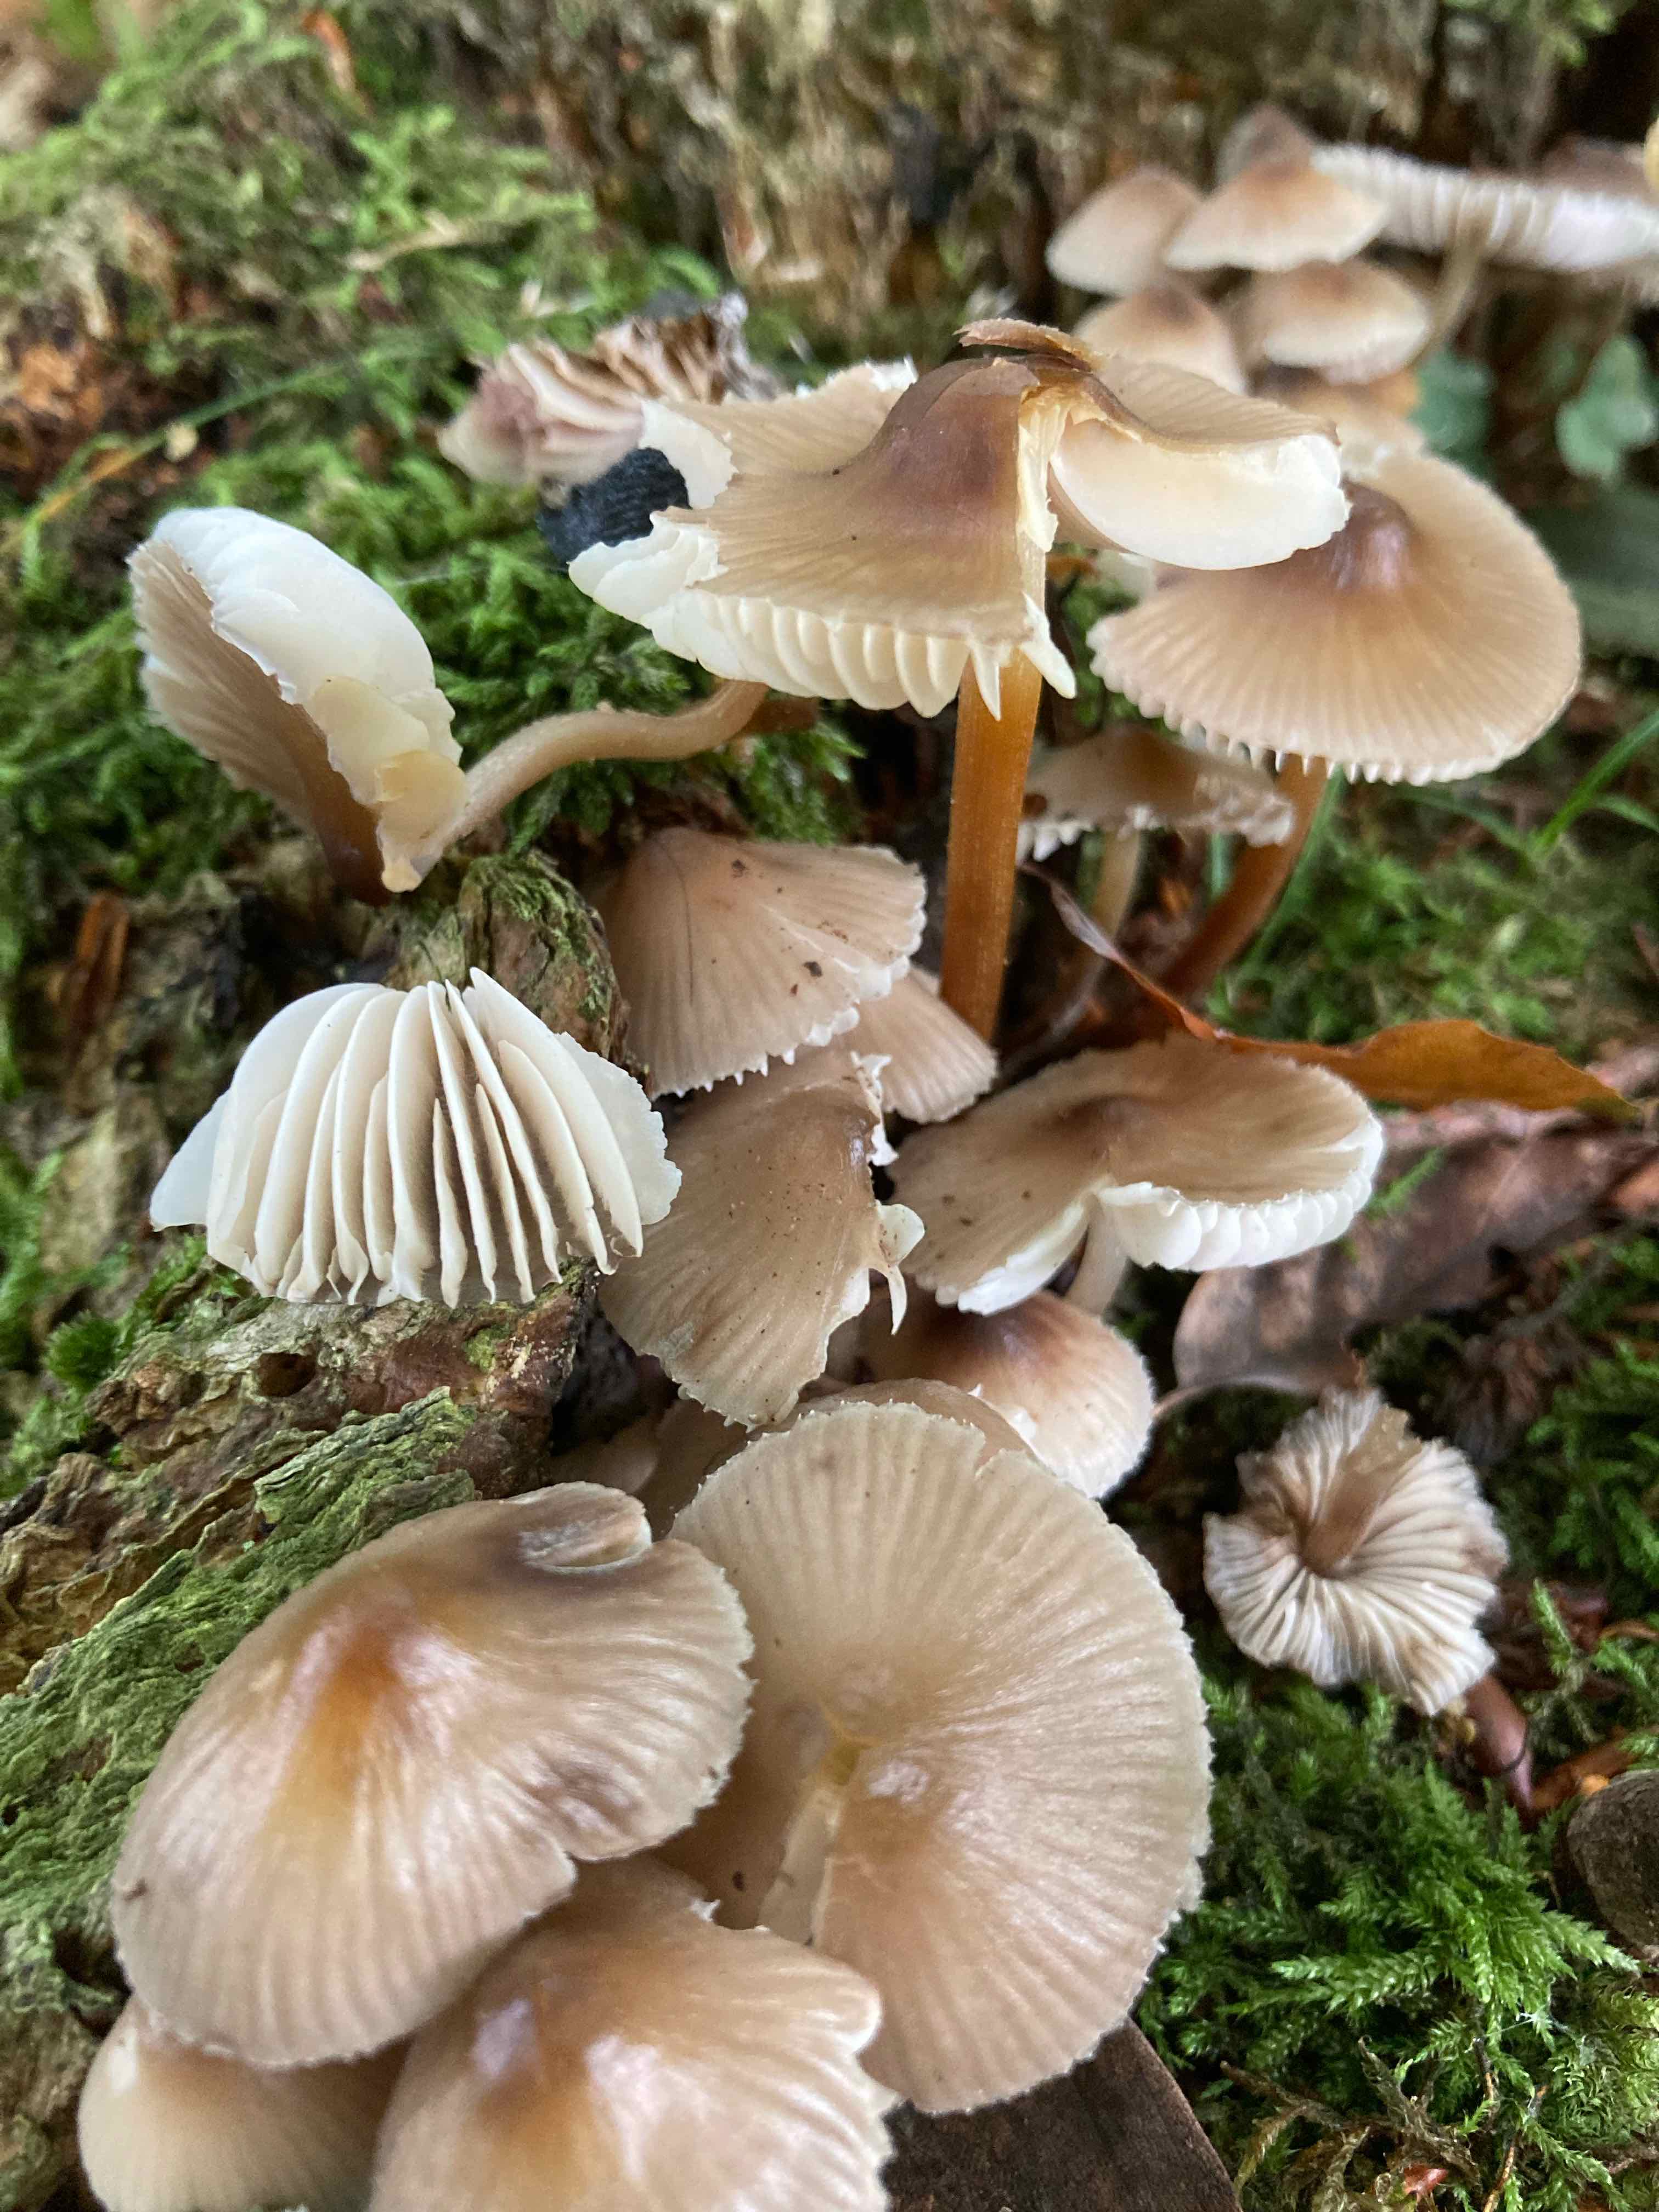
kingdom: Fungi
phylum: Basidiomycota
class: Agaricomycetes
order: Agaricales
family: Mycenaceae
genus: Mycena
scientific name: Mycena inclinata
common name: nikkende huesvamp
